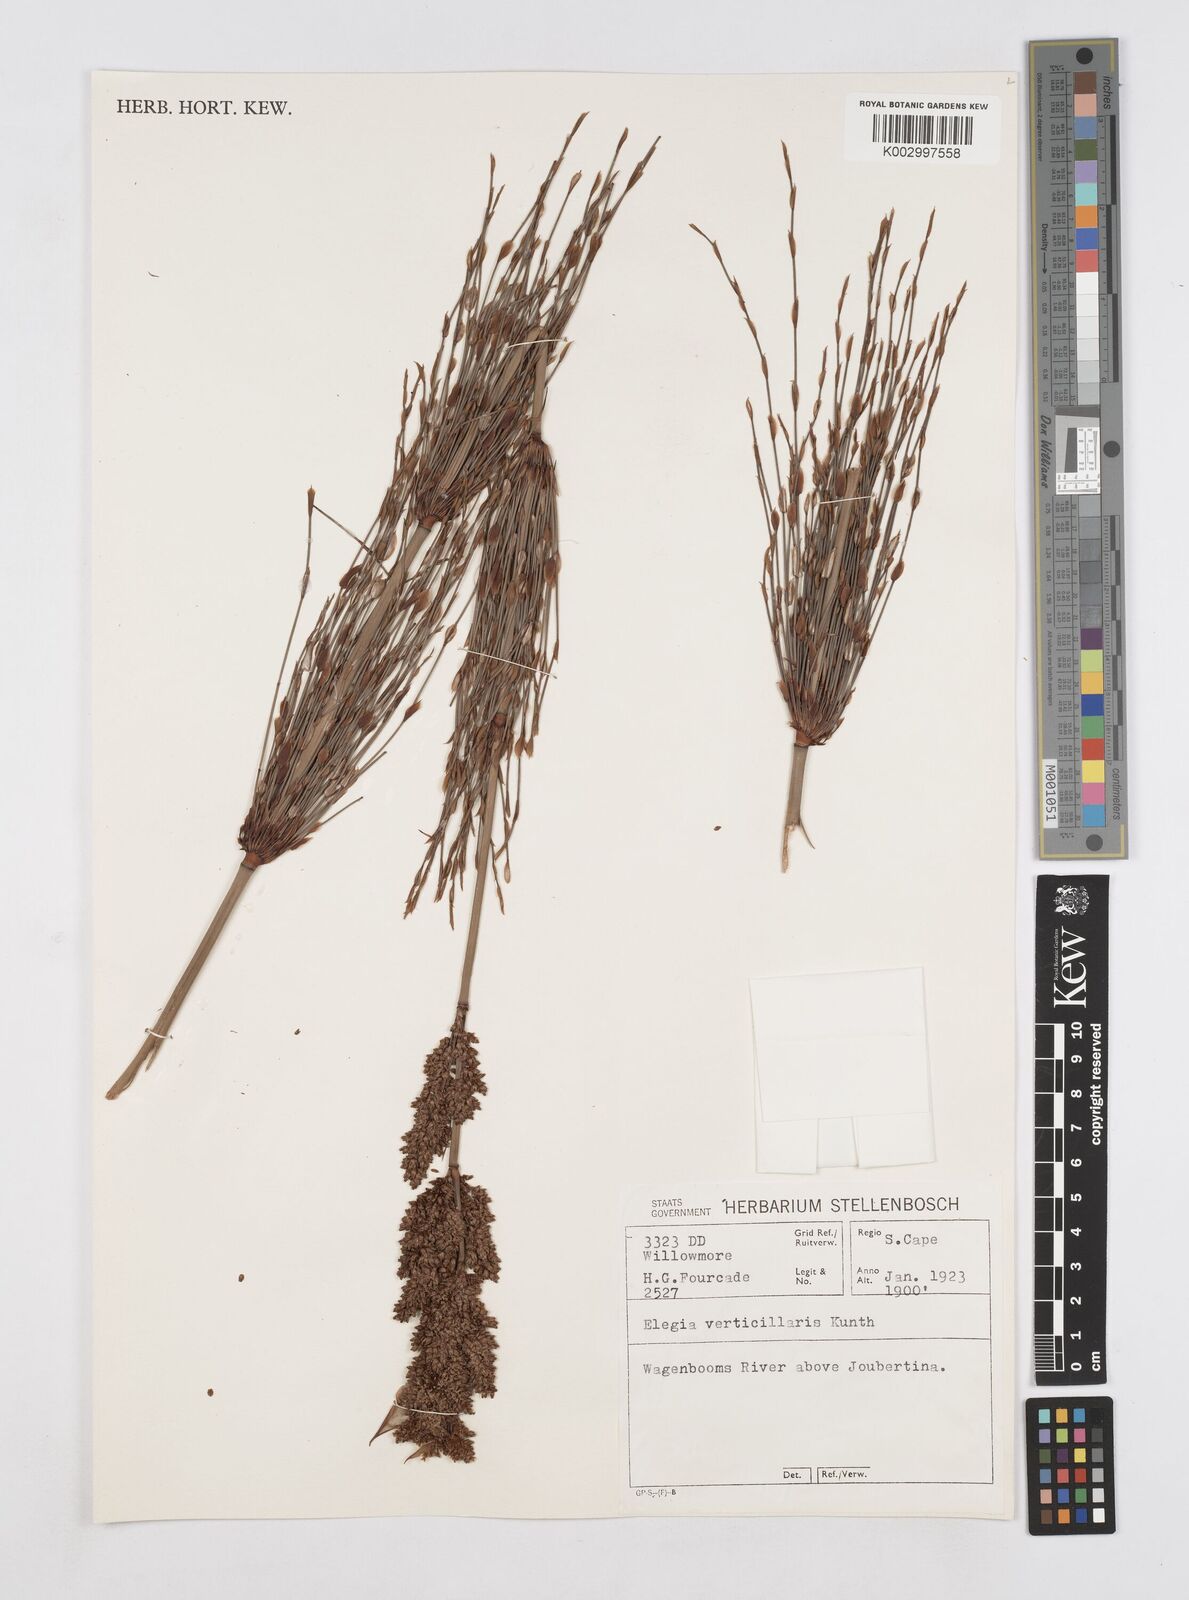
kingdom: Plantae
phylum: Tracheophyta
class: Liliopsida
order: Poales
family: Restionaceae
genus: Elegia
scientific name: Elegia capensis
